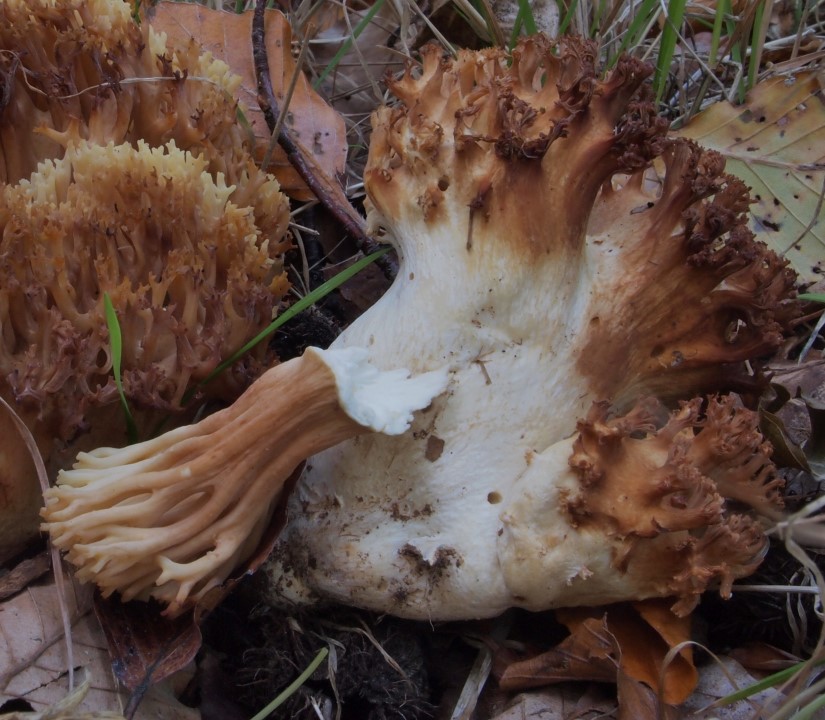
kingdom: Fungi
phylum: Basidiomycota
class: Agaricomycetes
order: Gomphales
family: Gomphaceae
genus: Ramaria
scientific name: Ramaria
